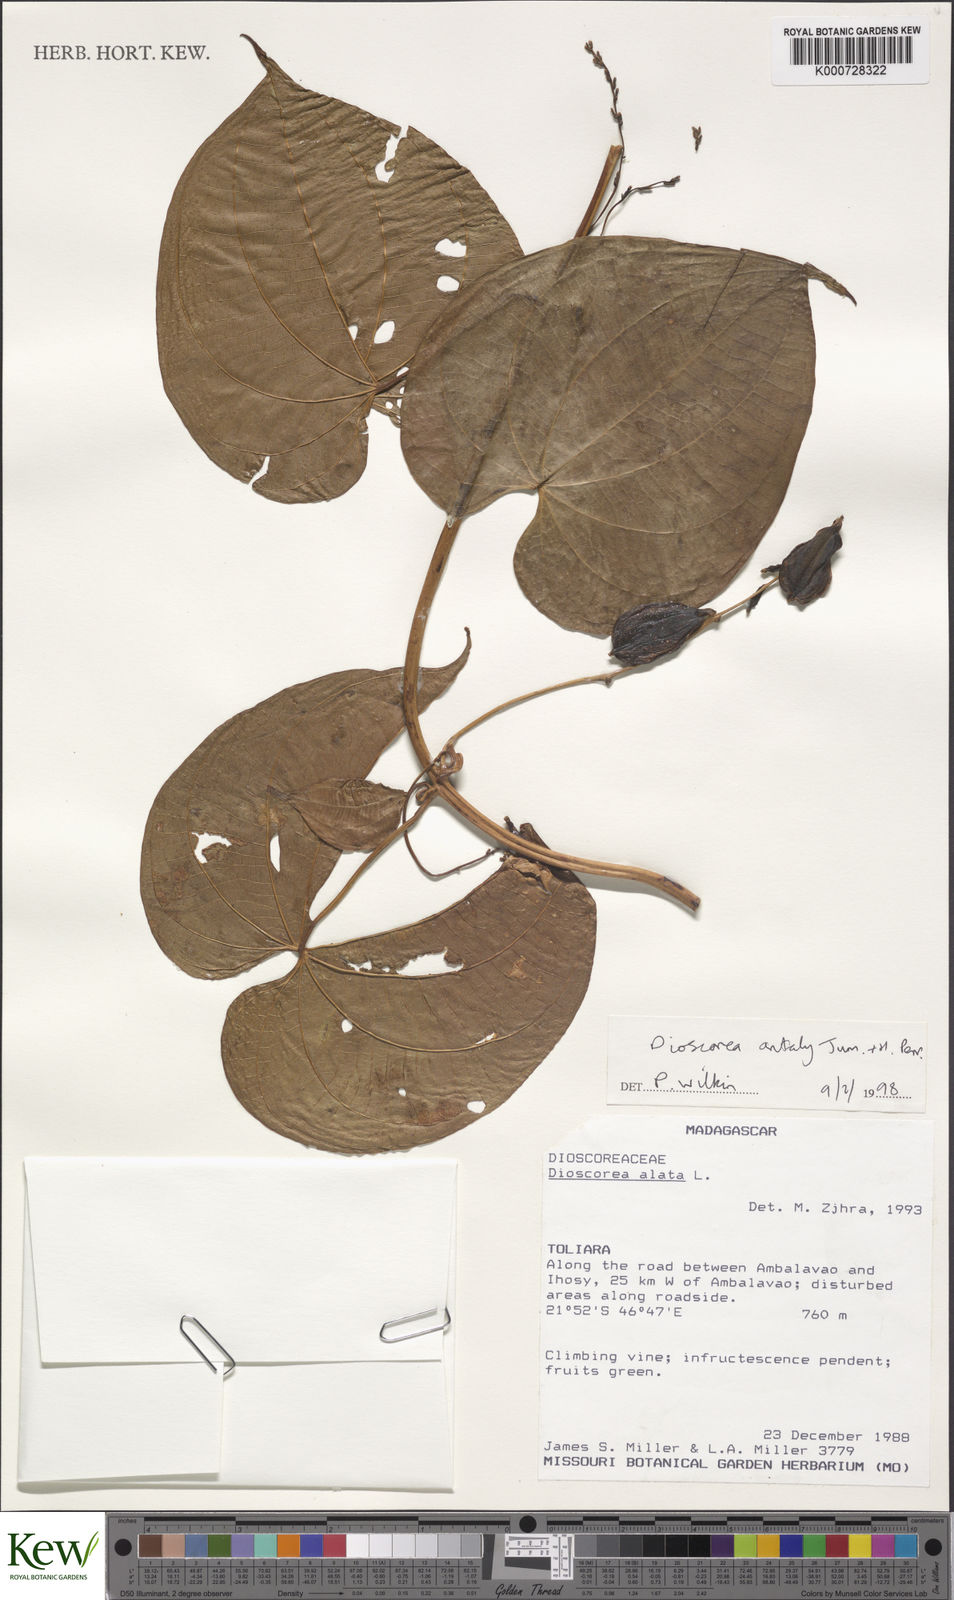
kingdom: Plantae
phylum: Tracheophyta
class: Liliopsida
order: Dioscoreales
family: Dioscoreaceae
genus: Dioscorea
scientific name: Dioscorea antaly
